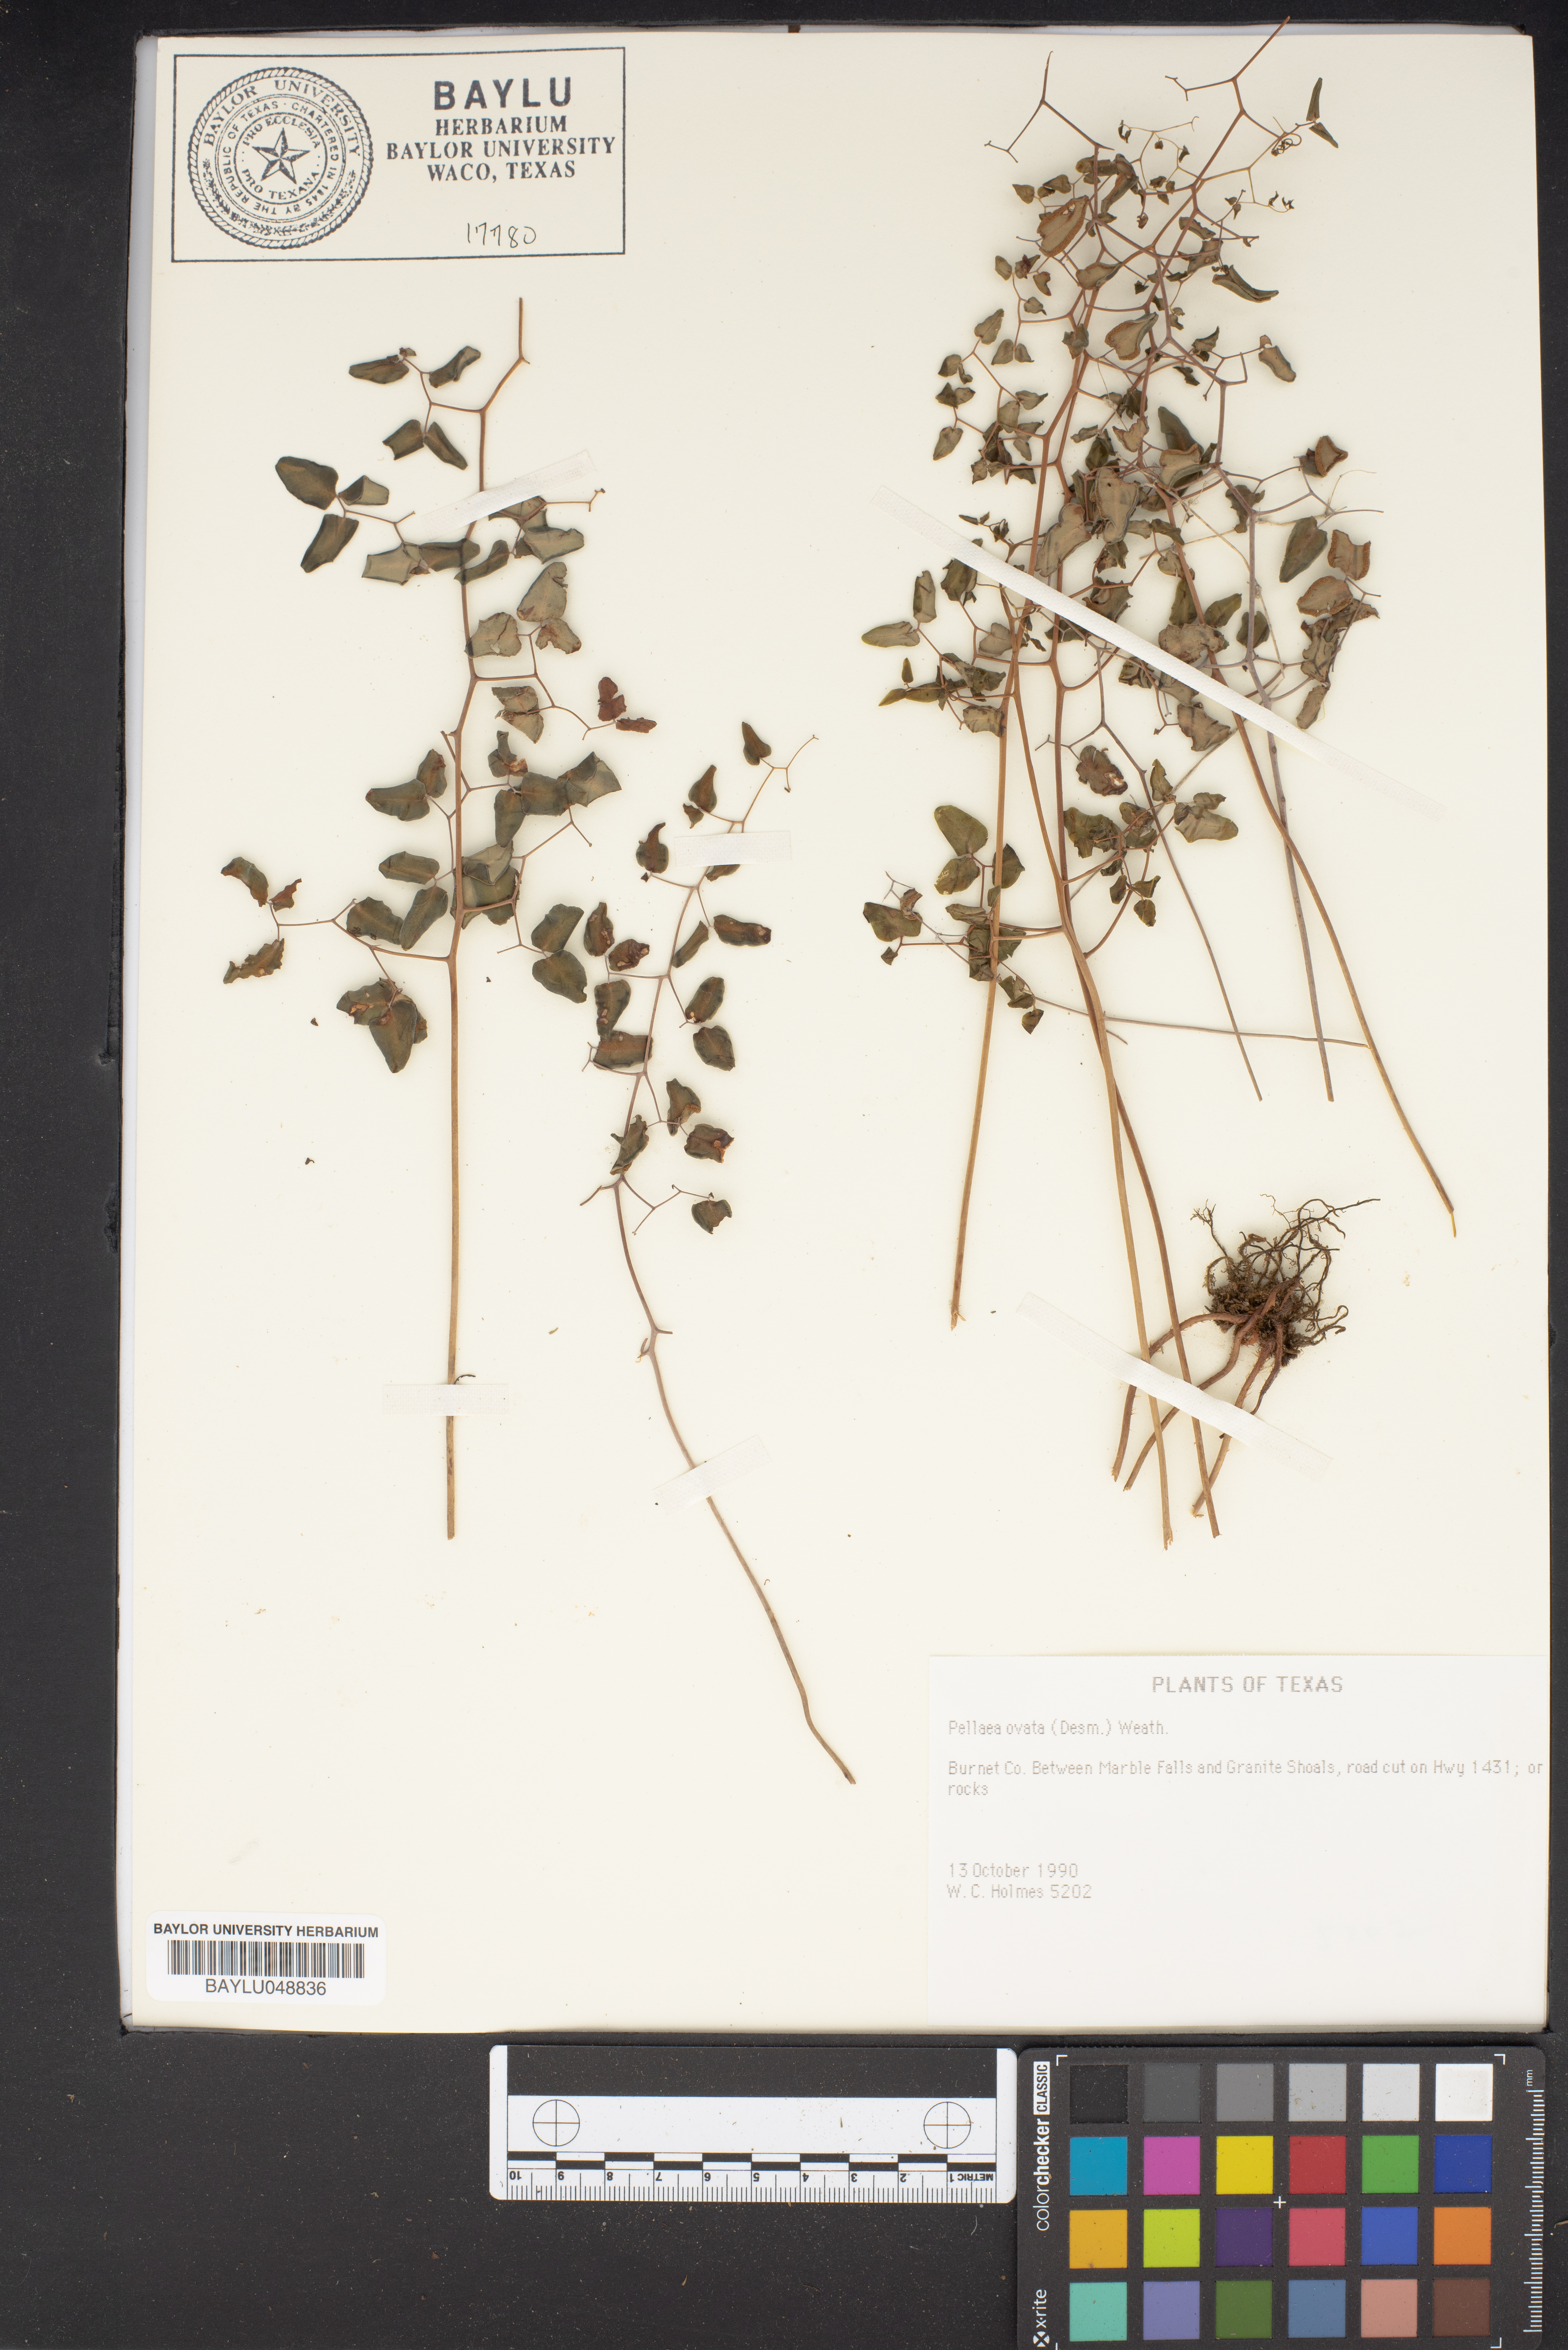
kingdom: Plantae
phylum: Tracheophyta
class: Polypodiopsida
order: Polypodiales
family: Pteridaceae
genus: Pellaea
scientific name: Pellaea ovata
